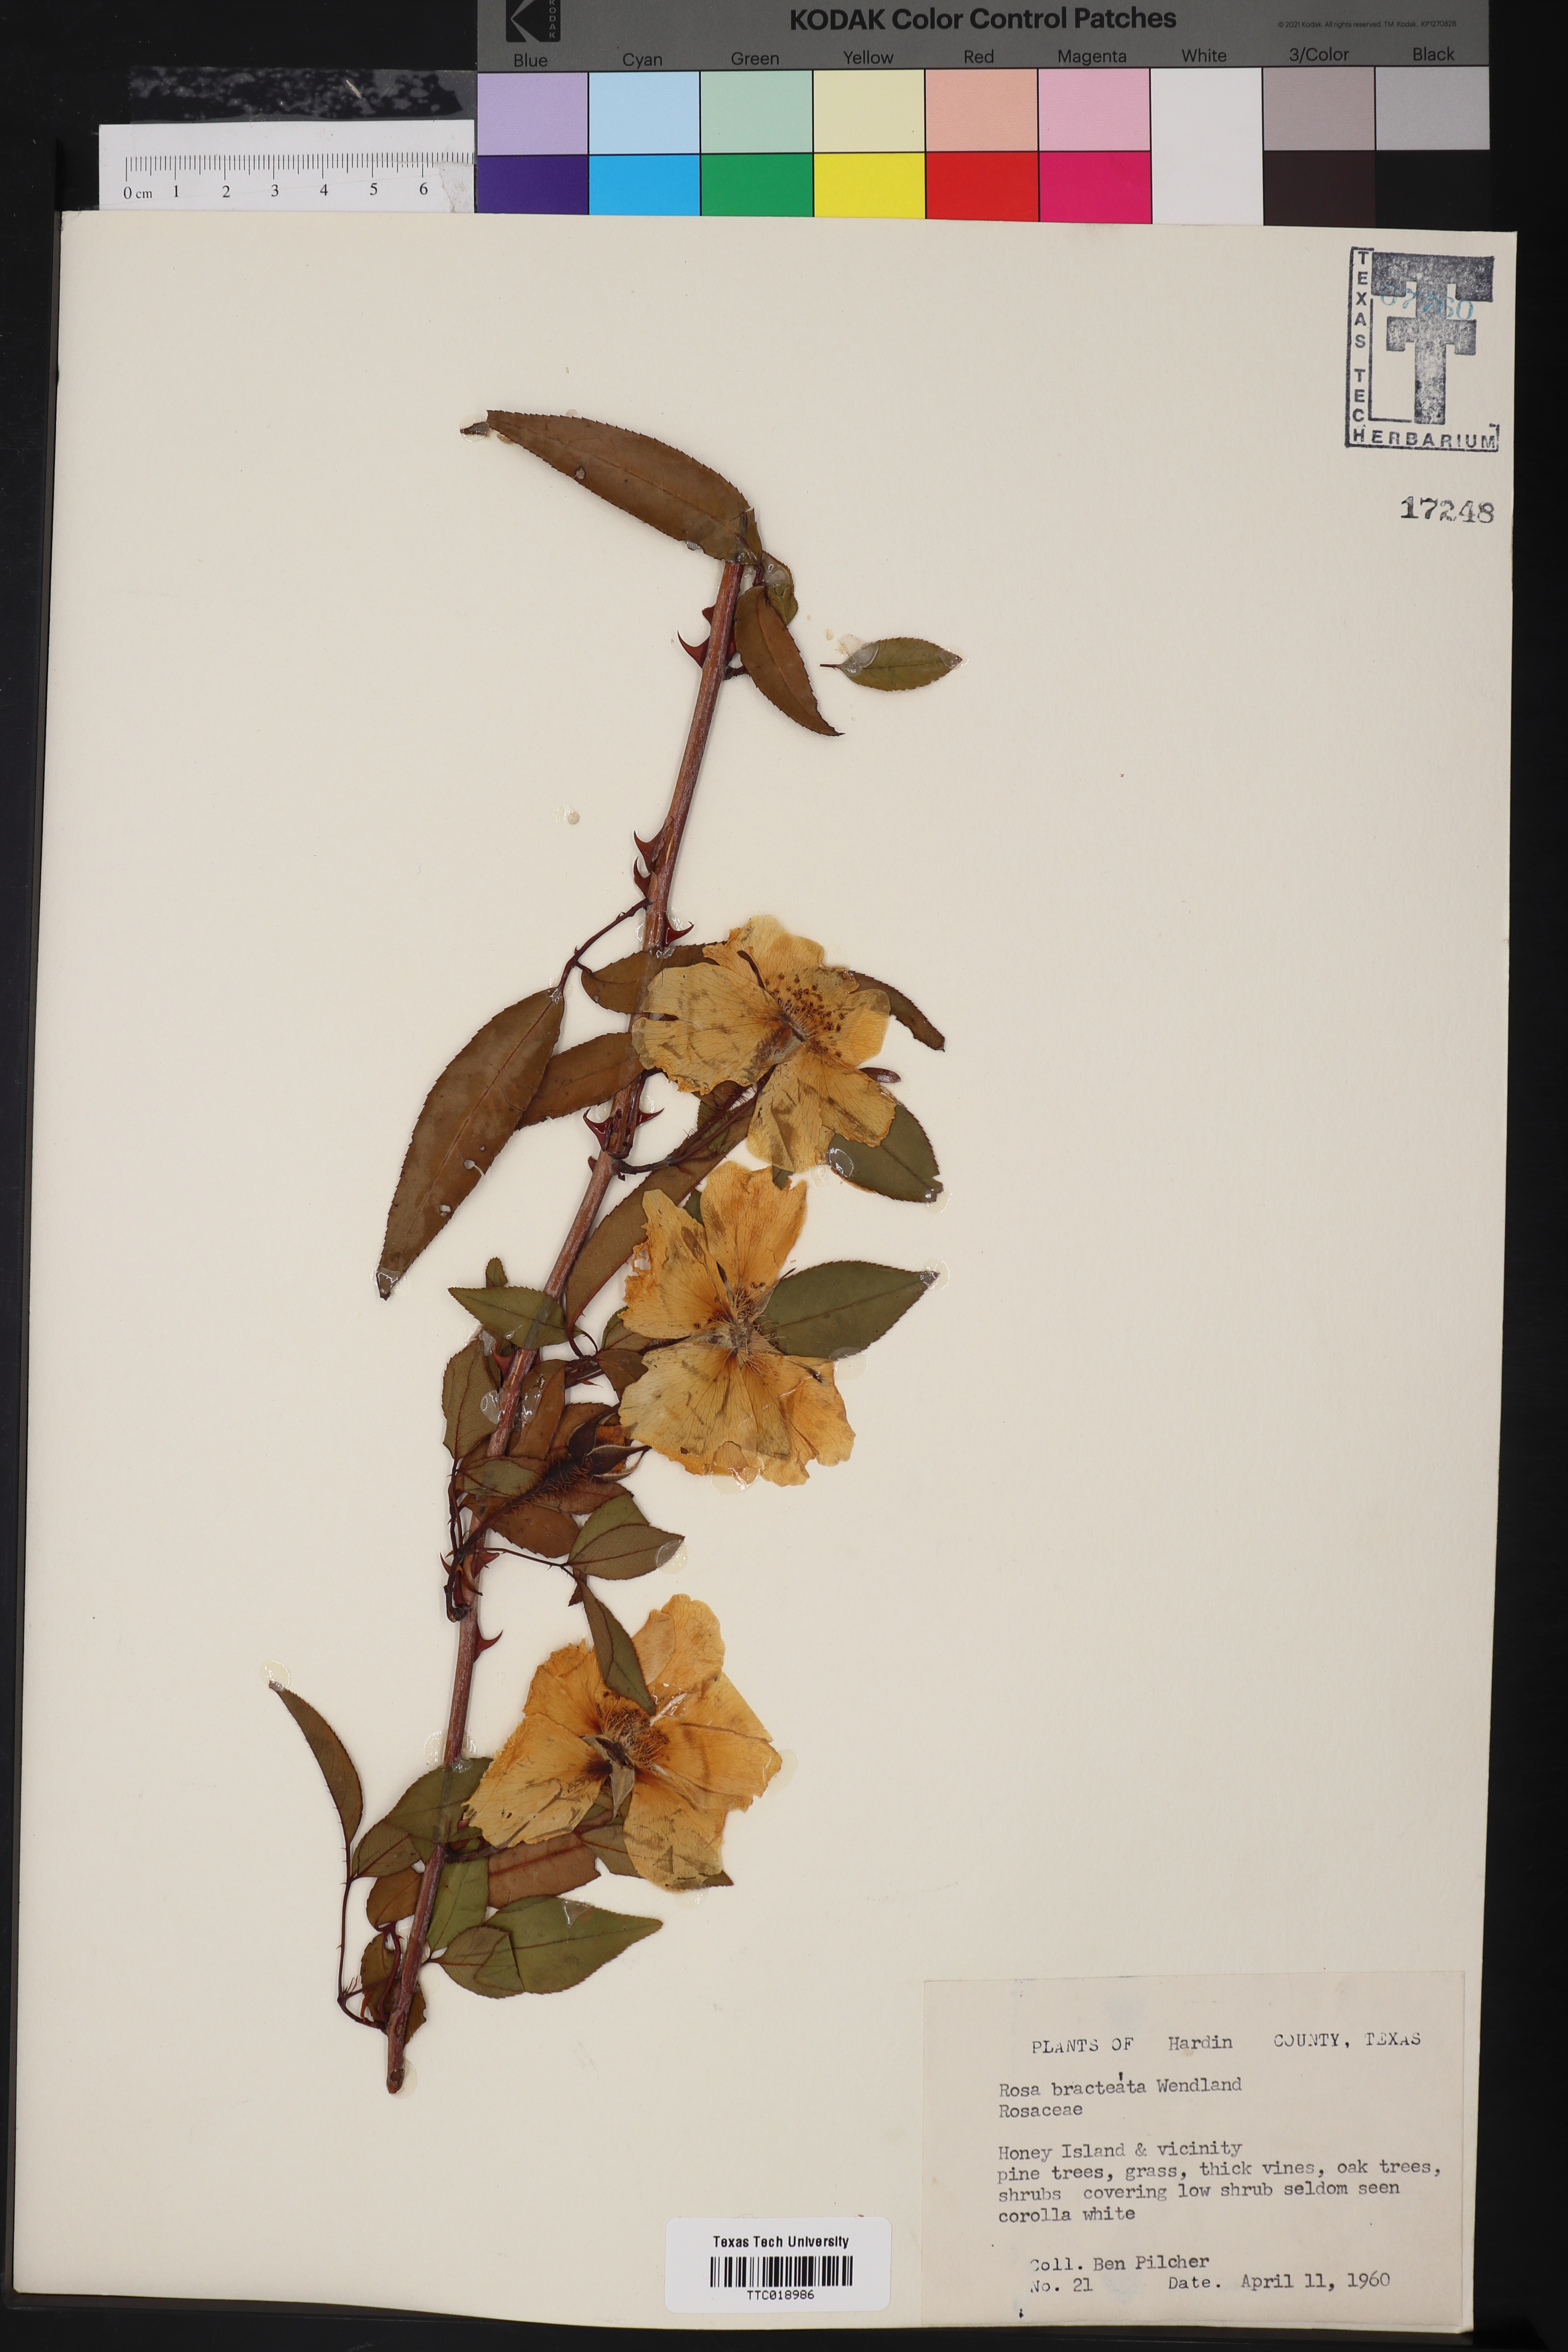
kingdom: Plantae
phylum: Tracheophyta
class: Magnoliopsida
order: Rosales
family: Rosaceae
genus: Rosa
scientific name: Rosa bracteata
